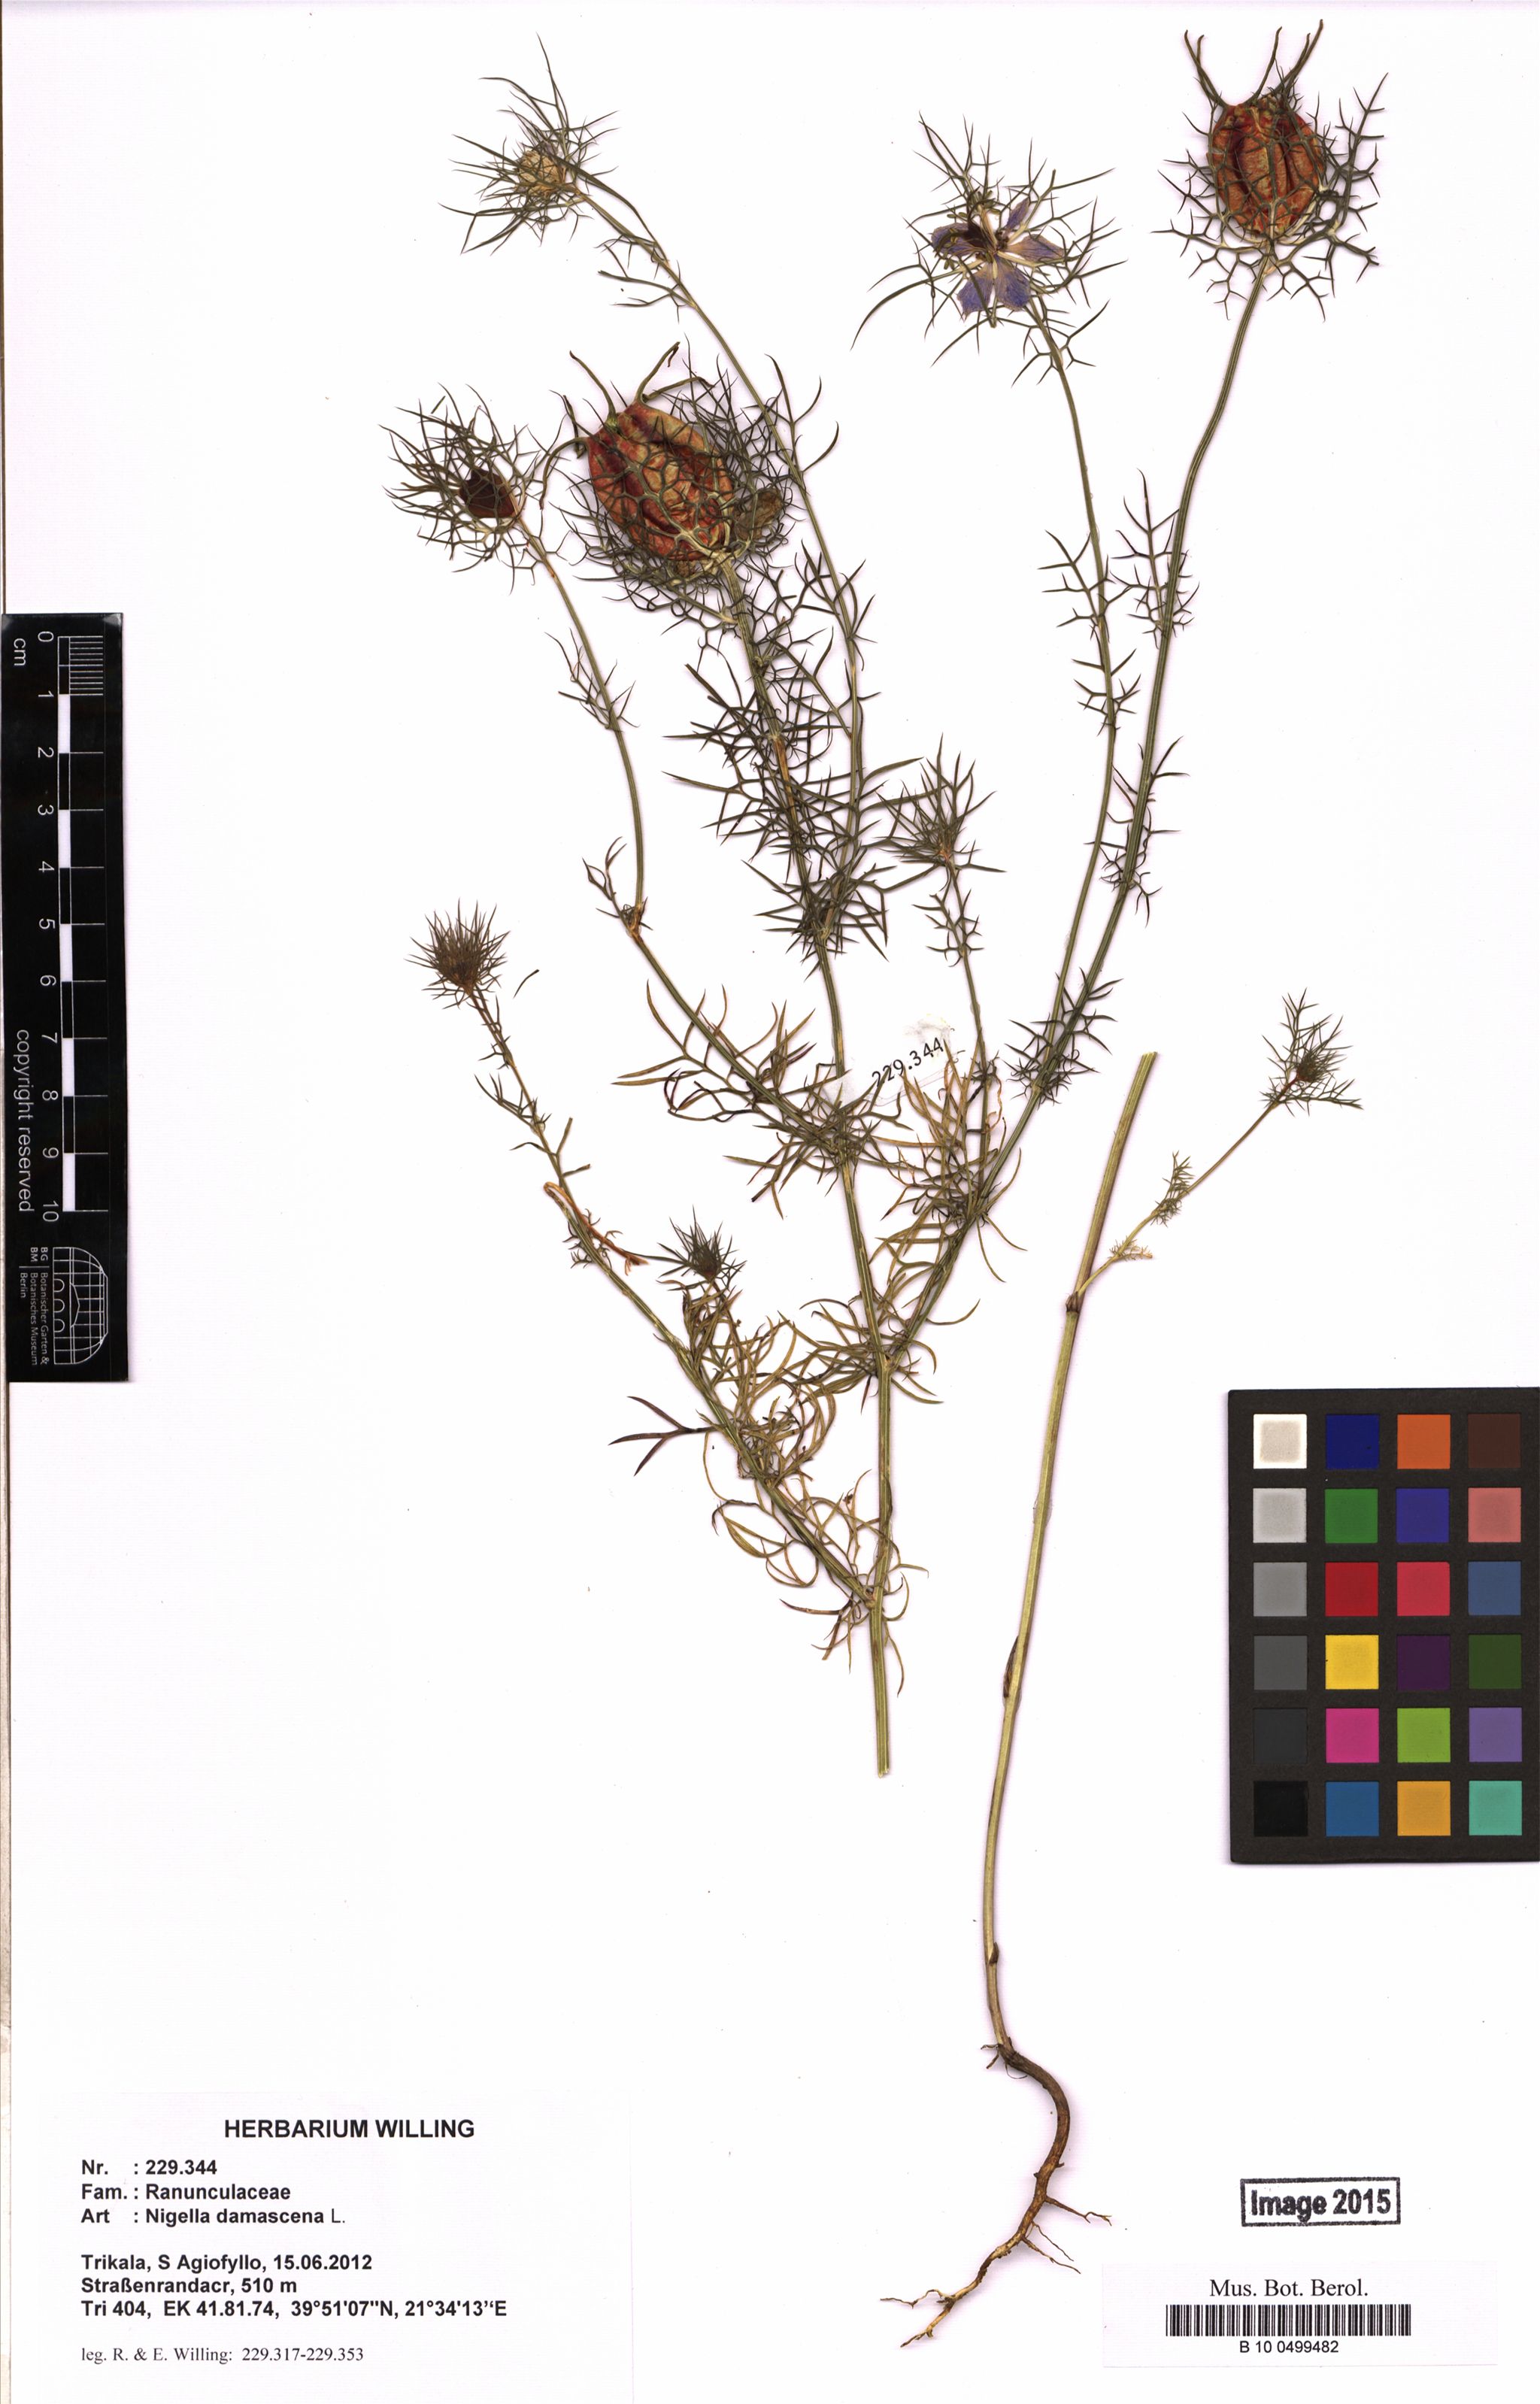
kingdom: Plantae
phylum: Tracheophyta
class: Magnoliopsida
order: Ranunculales
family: Ranunculaceae
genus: Nigella
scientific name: Nigella damascena
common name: Love-in-a-mist
